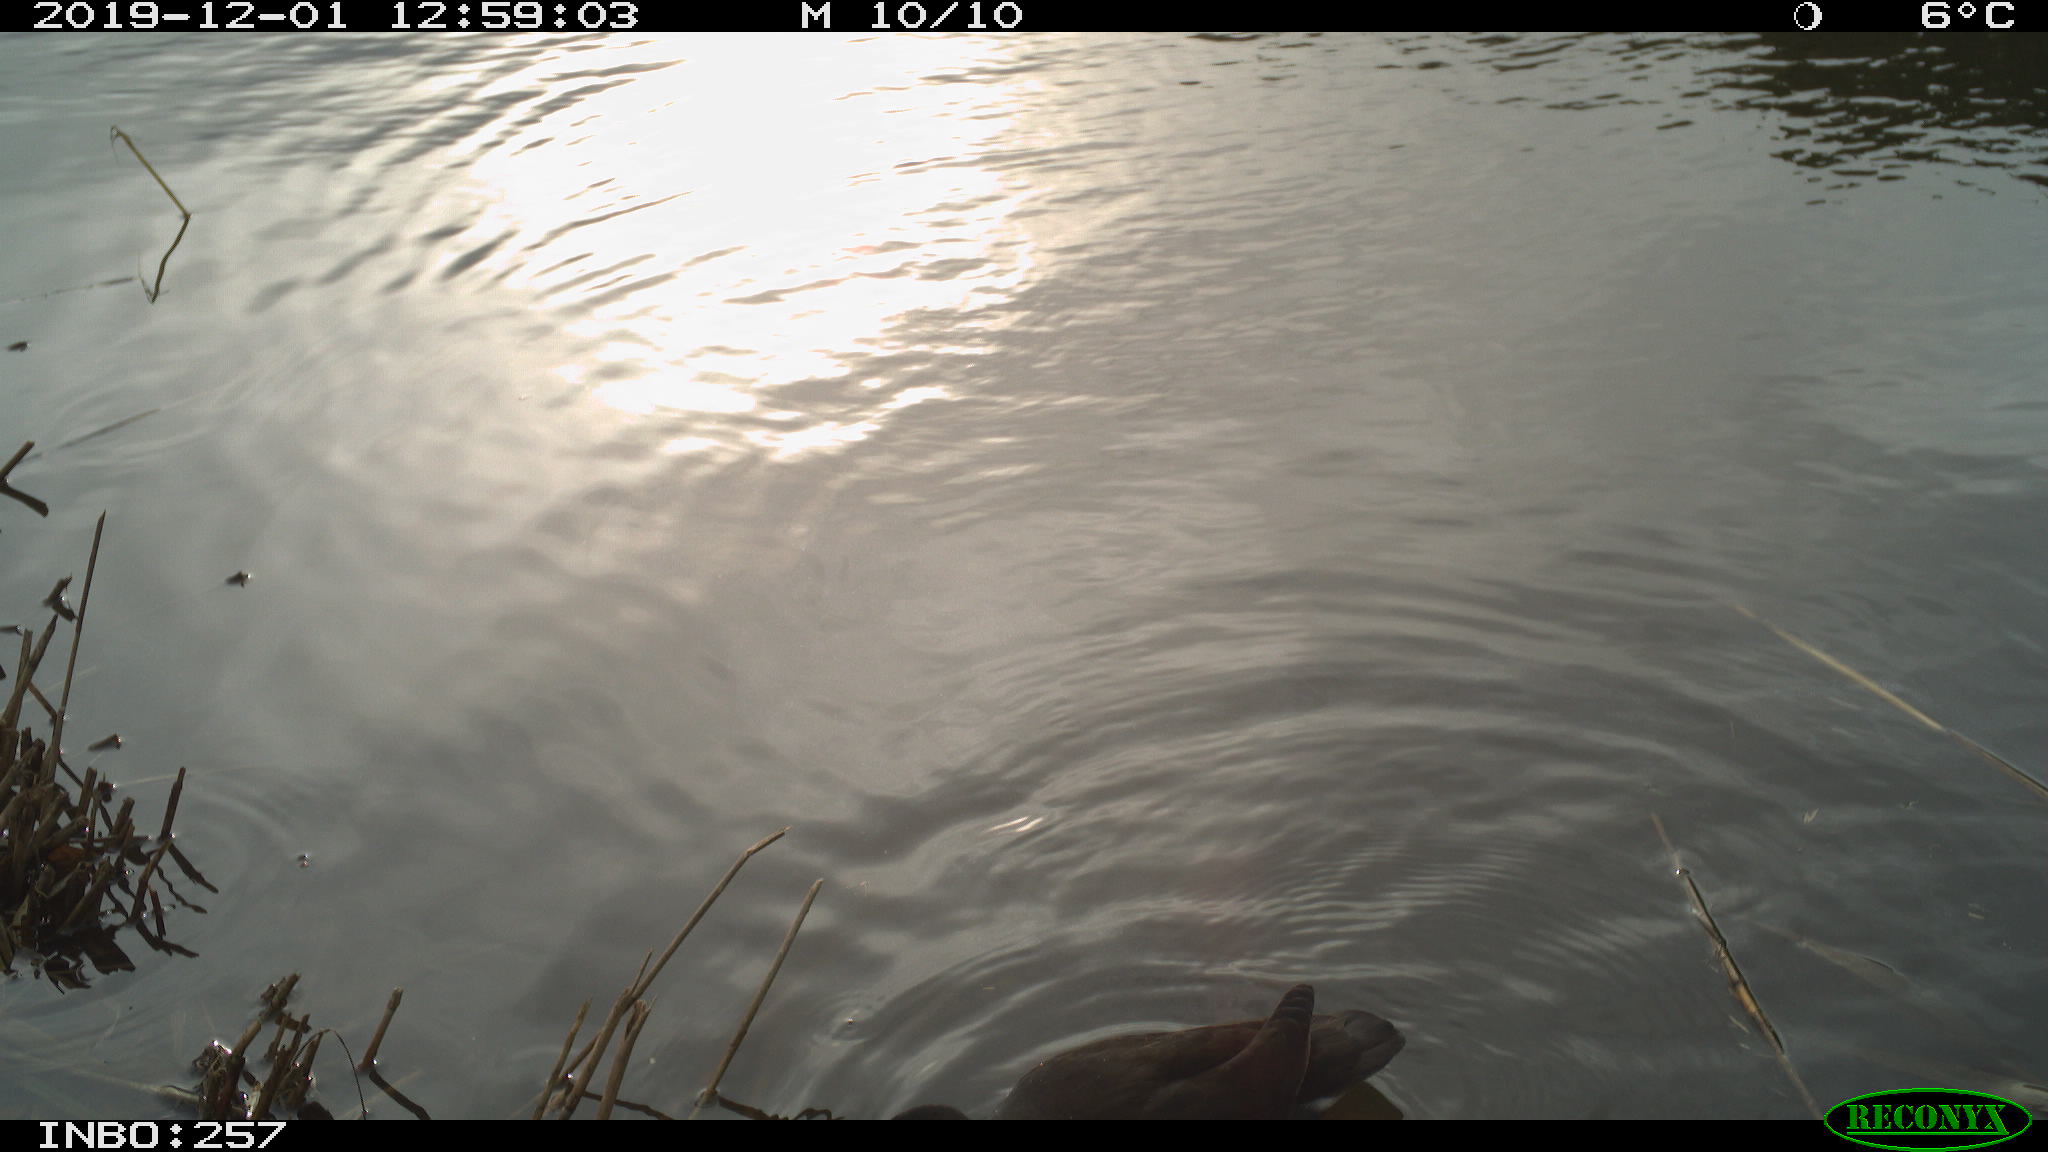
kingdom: Animalia
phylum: Chordata
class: Aves
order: Gruiformes
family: Rallidae
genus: Gallinula
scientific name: Gallinula chloropus
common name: Common moorhen
